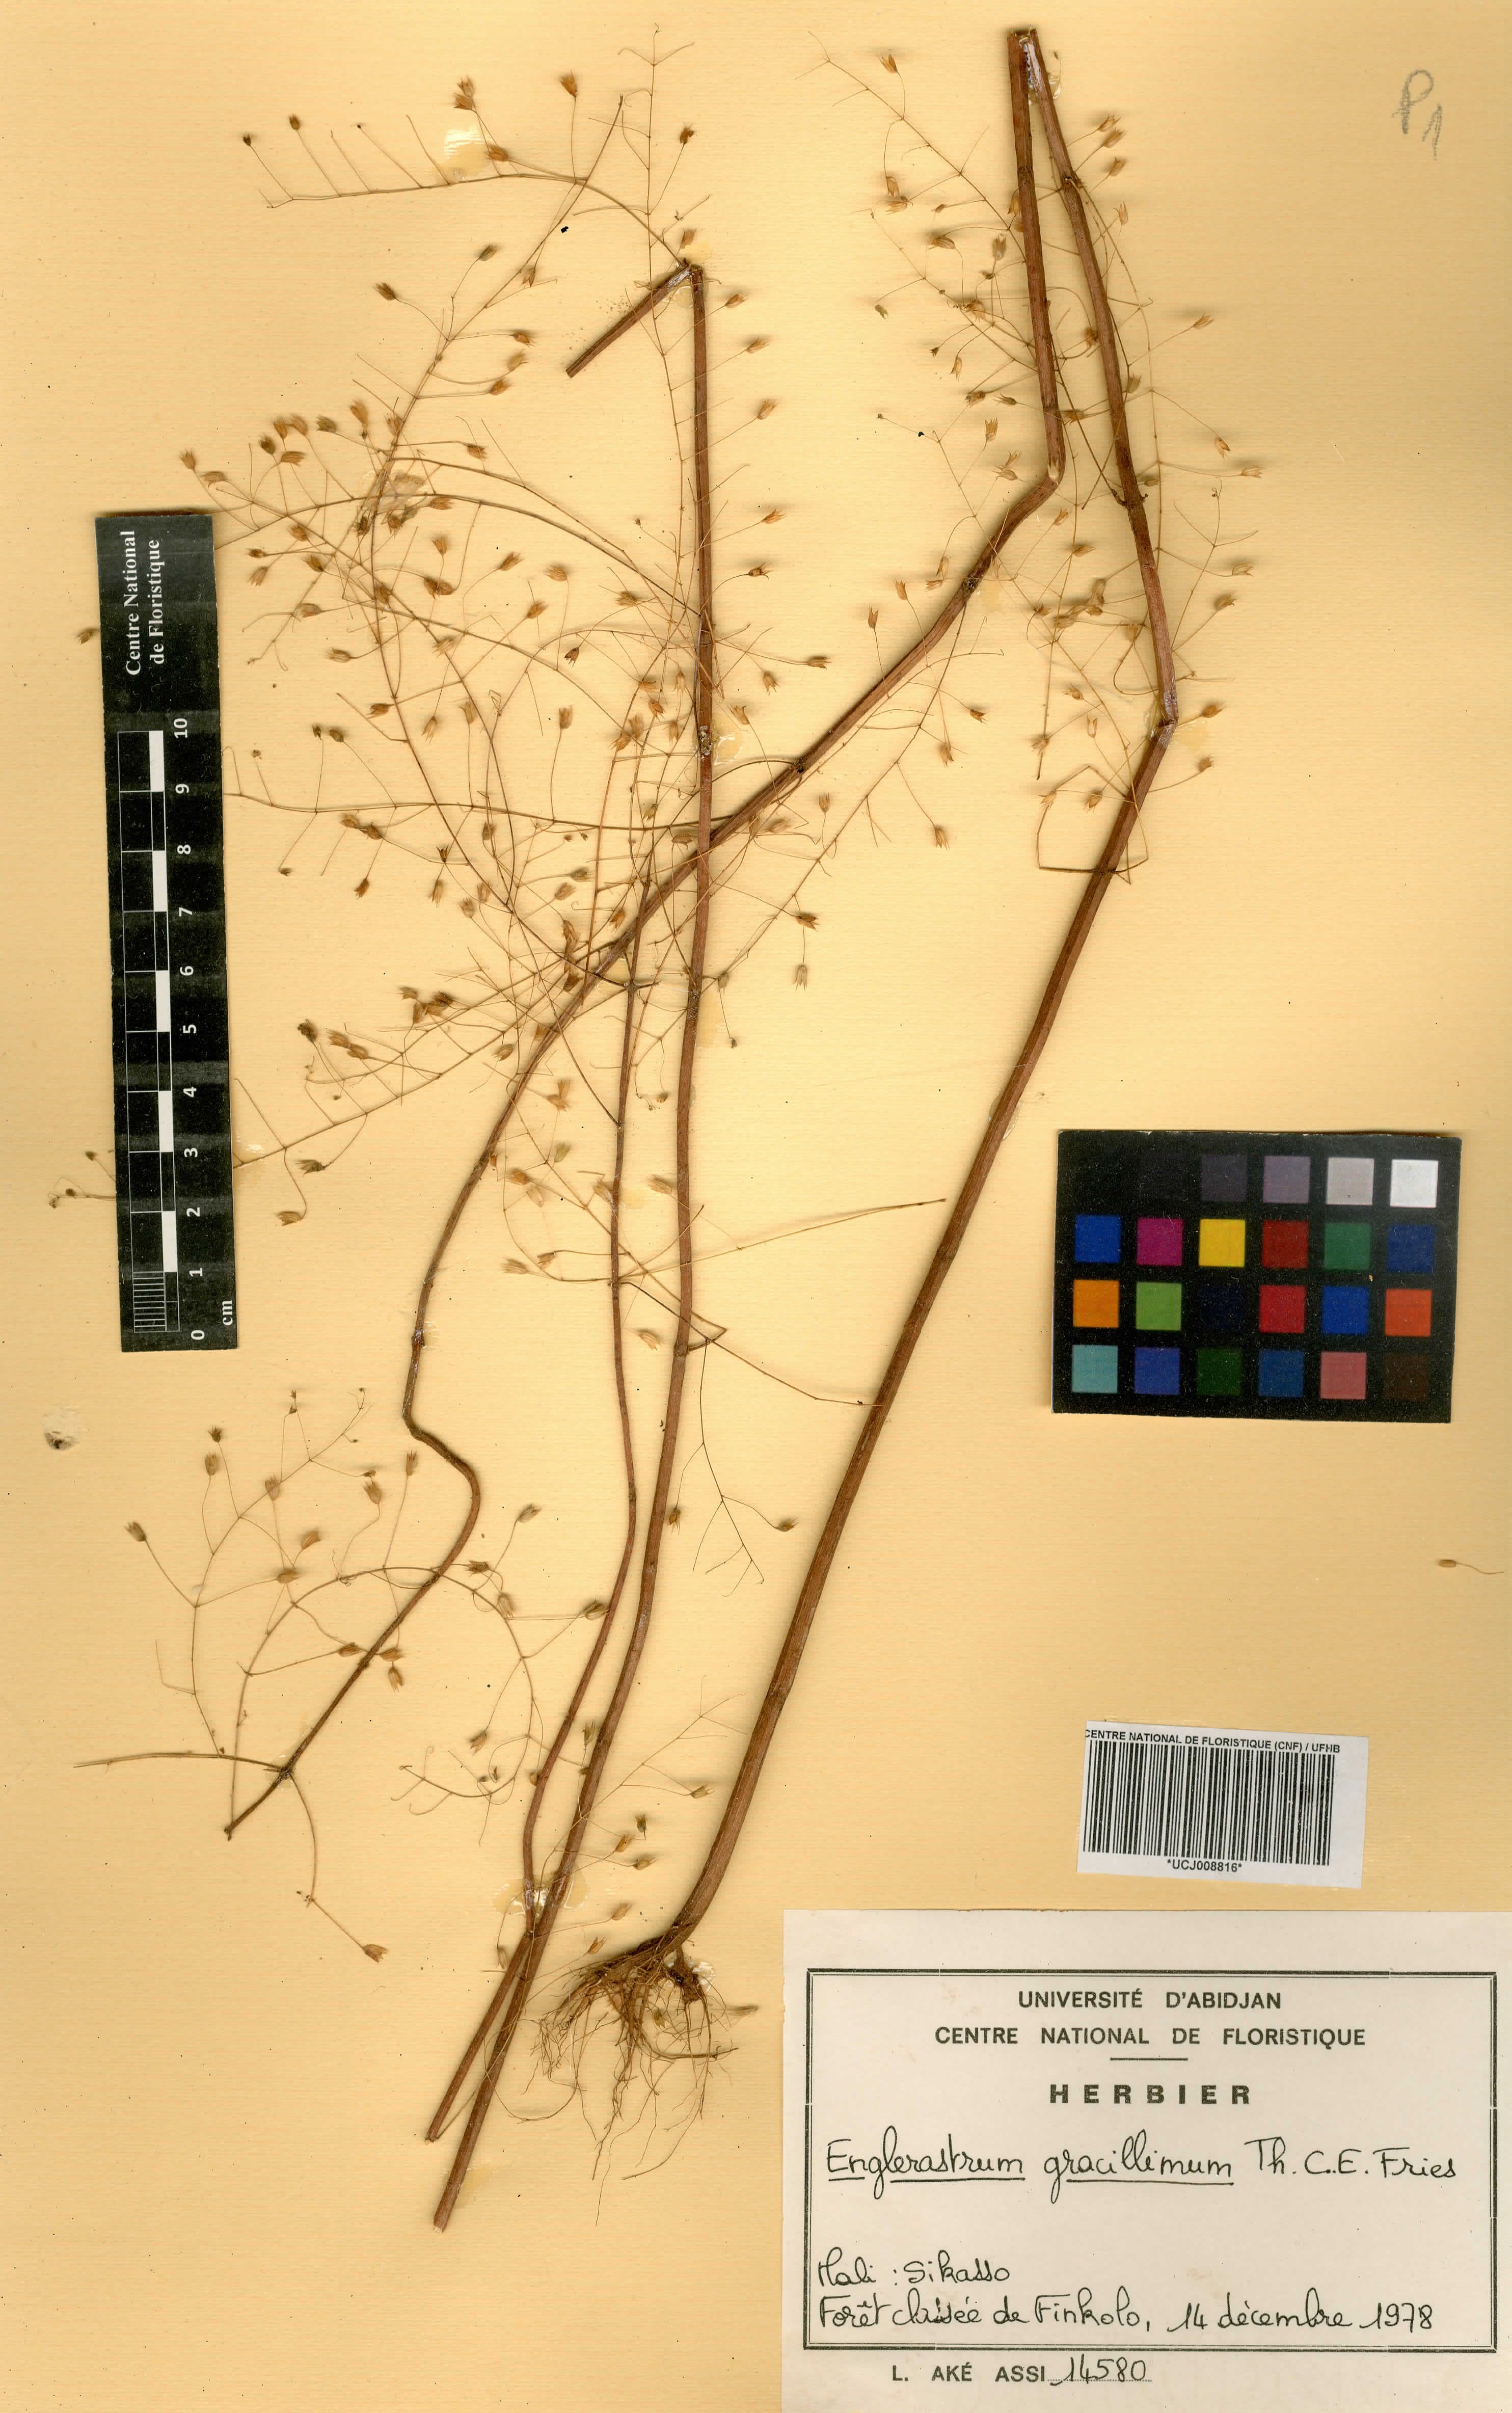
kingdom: Plantae
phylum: Tracheophyta
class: Magnoliopsida
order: Lamiales
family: Lamiaceae
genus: Coleus
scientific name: Coleus gracillimus
